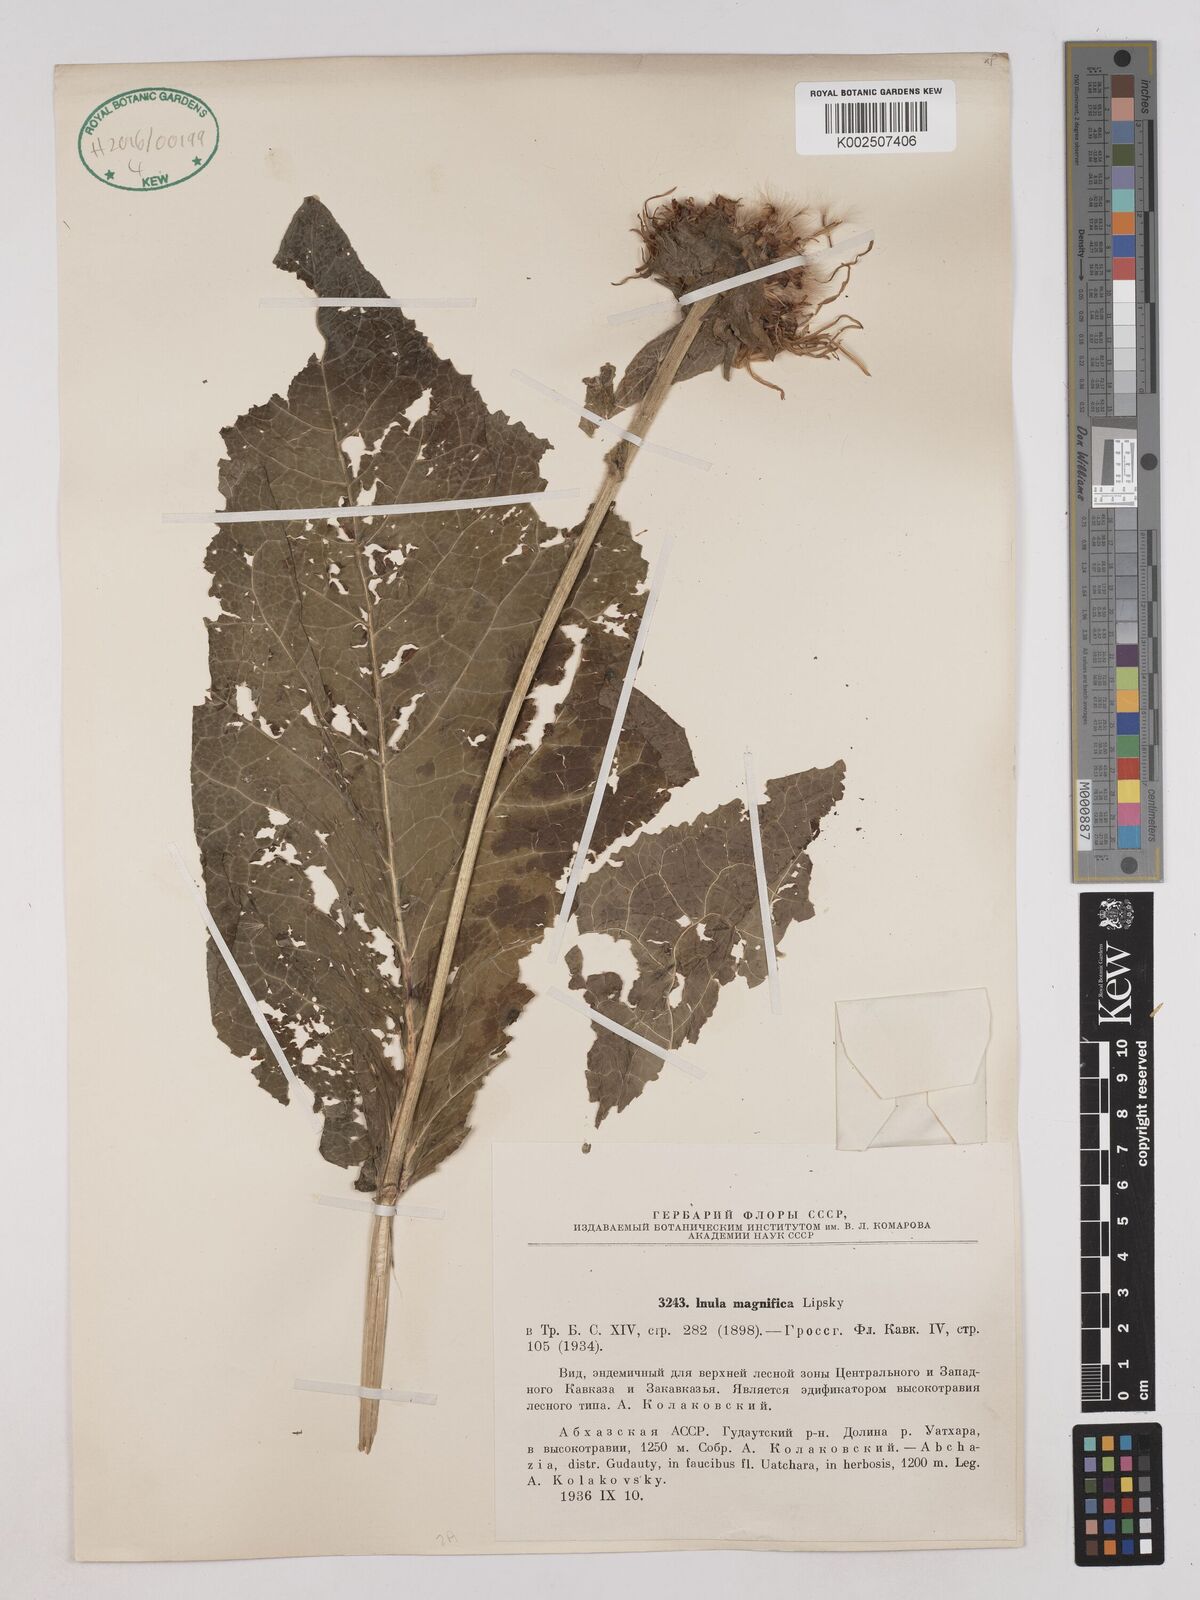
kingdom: Plantae
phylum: Tracheophyta
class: Magnoliopsida
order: Asterales
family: Asteraceae
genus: Inula
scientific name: Inula magnifica
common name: Giant fleabane
